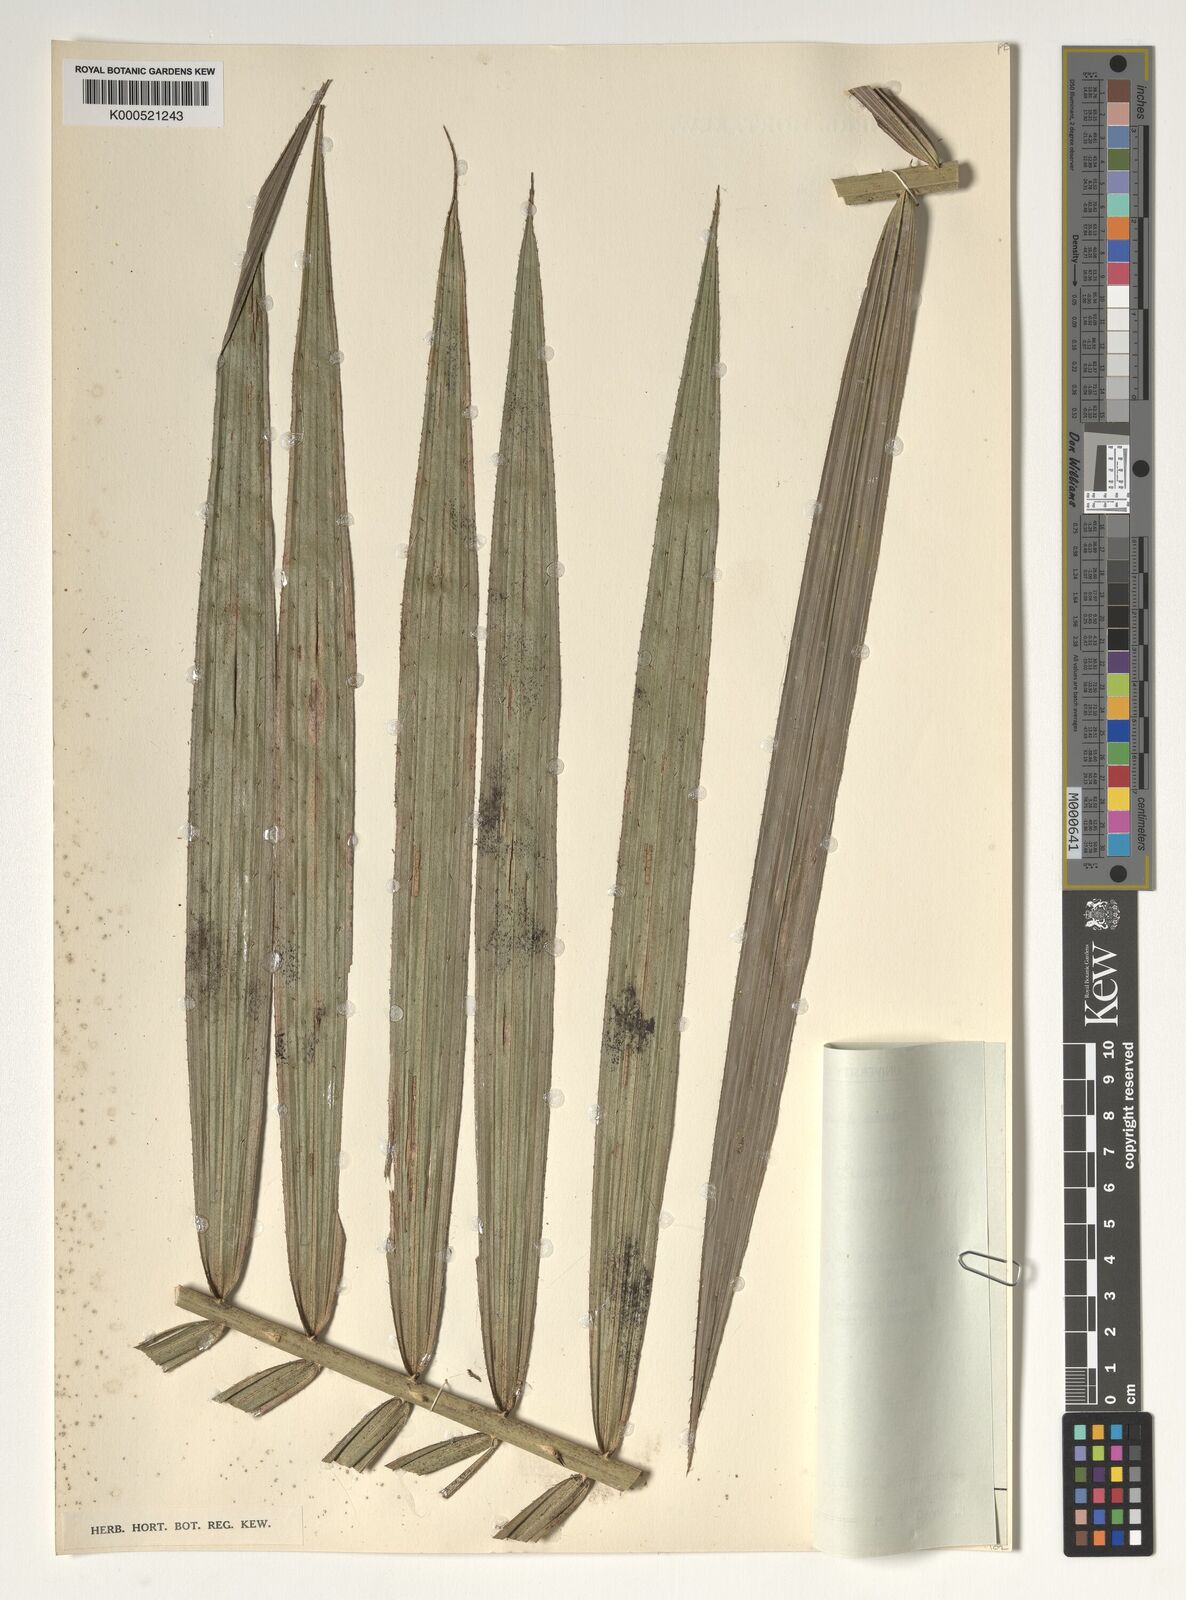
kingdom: Plantae
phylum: Tracheophyta
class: Liliopsida
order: Arecales
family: Arecaceae
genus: Calamus
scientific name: Calamus deerratus
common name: Rattan
